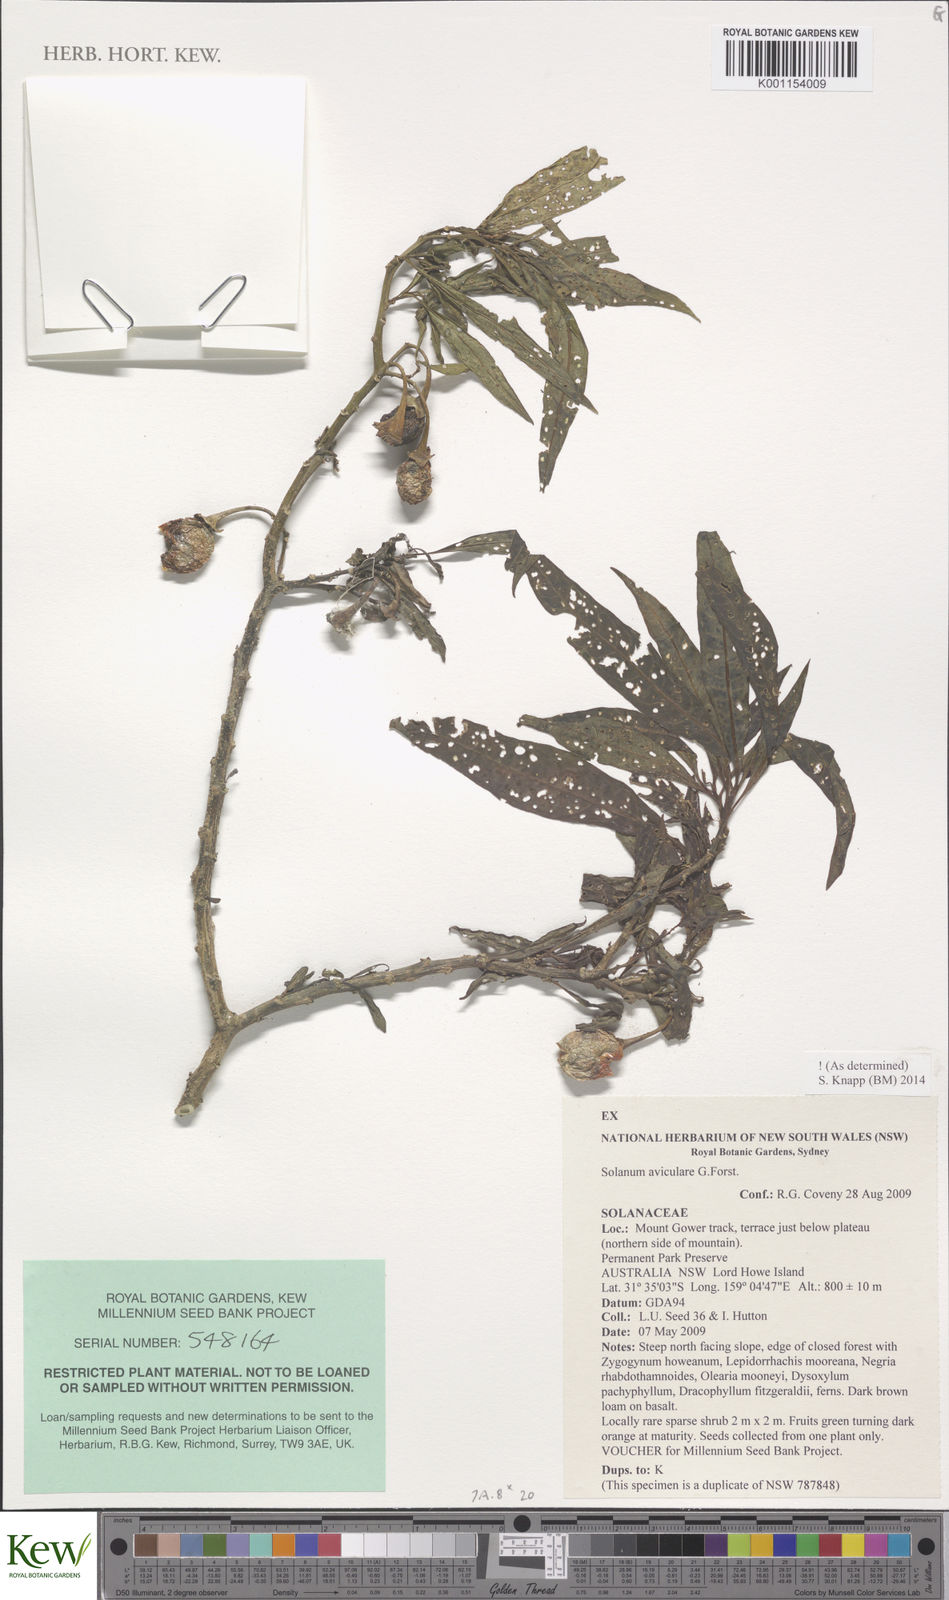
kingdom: Plantae
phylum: Tracheophyta
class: Magnoliopsida
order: Solanales
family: Solanaceae
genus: Solanum
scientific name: Solanum aviculare
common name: New zealand nightshade
